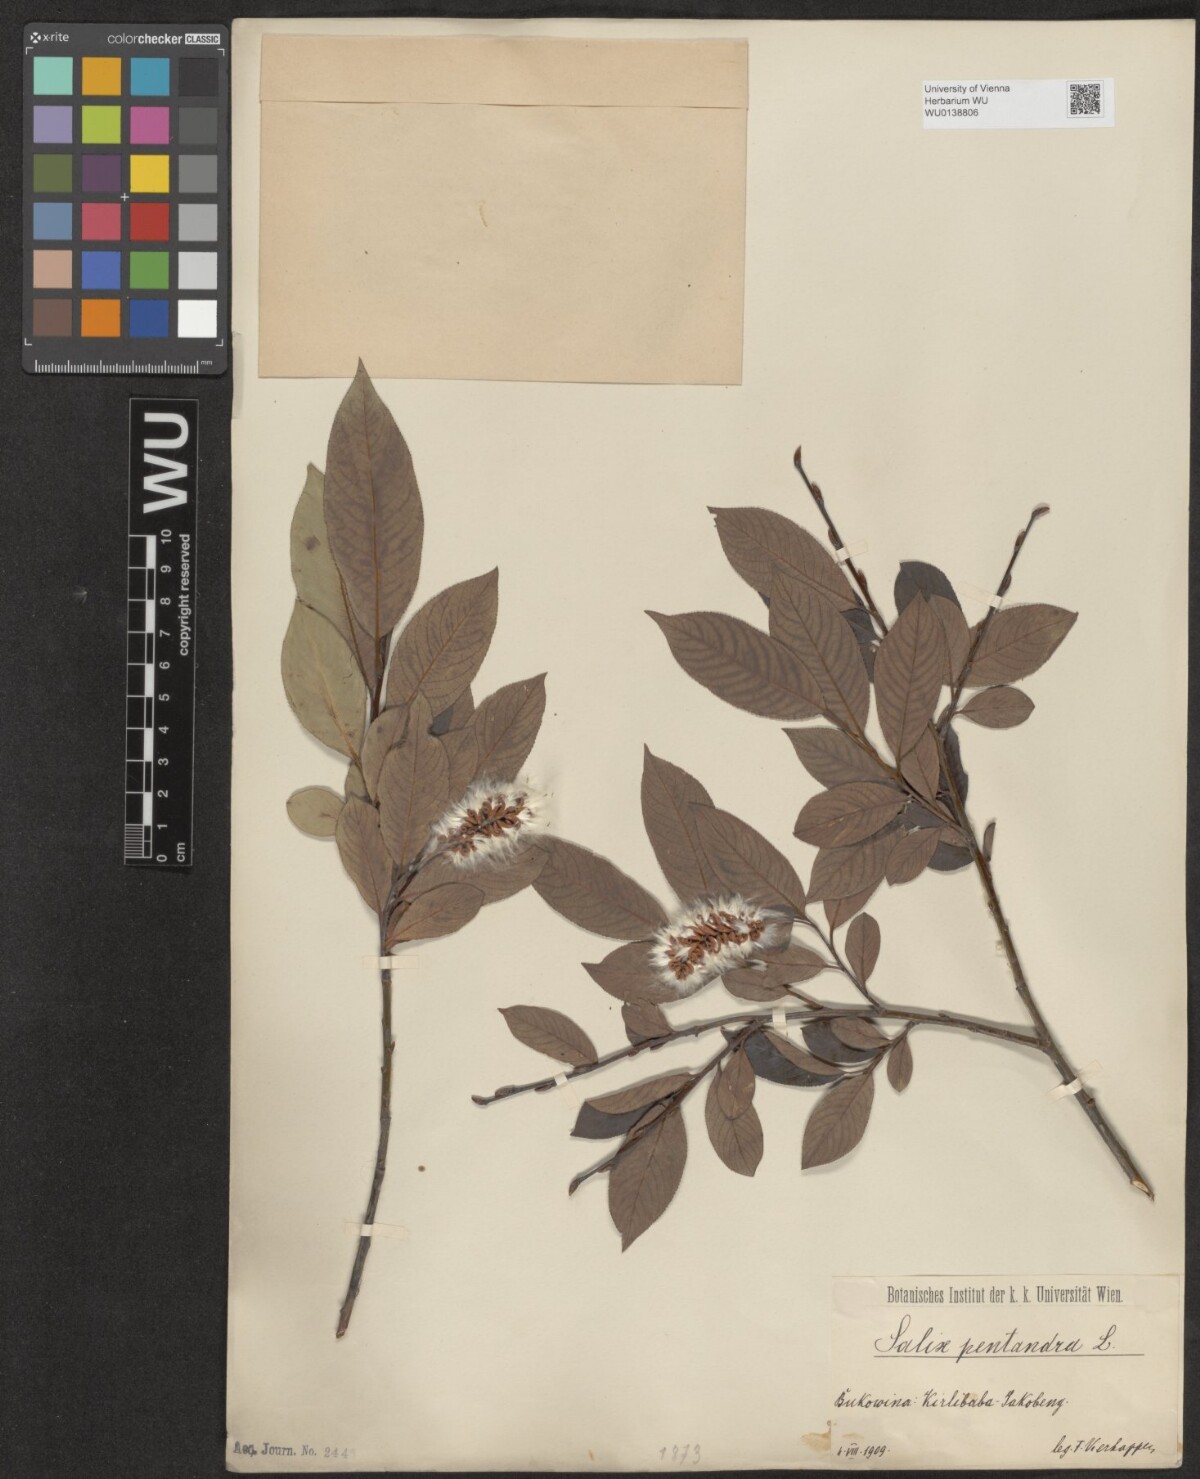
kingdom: Plantae
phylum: Tracheophyta
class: Magnoliopsida
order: Malpighiales
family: Salicaceae
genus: Salix
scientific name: Salix pentandra
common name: Bay willow
